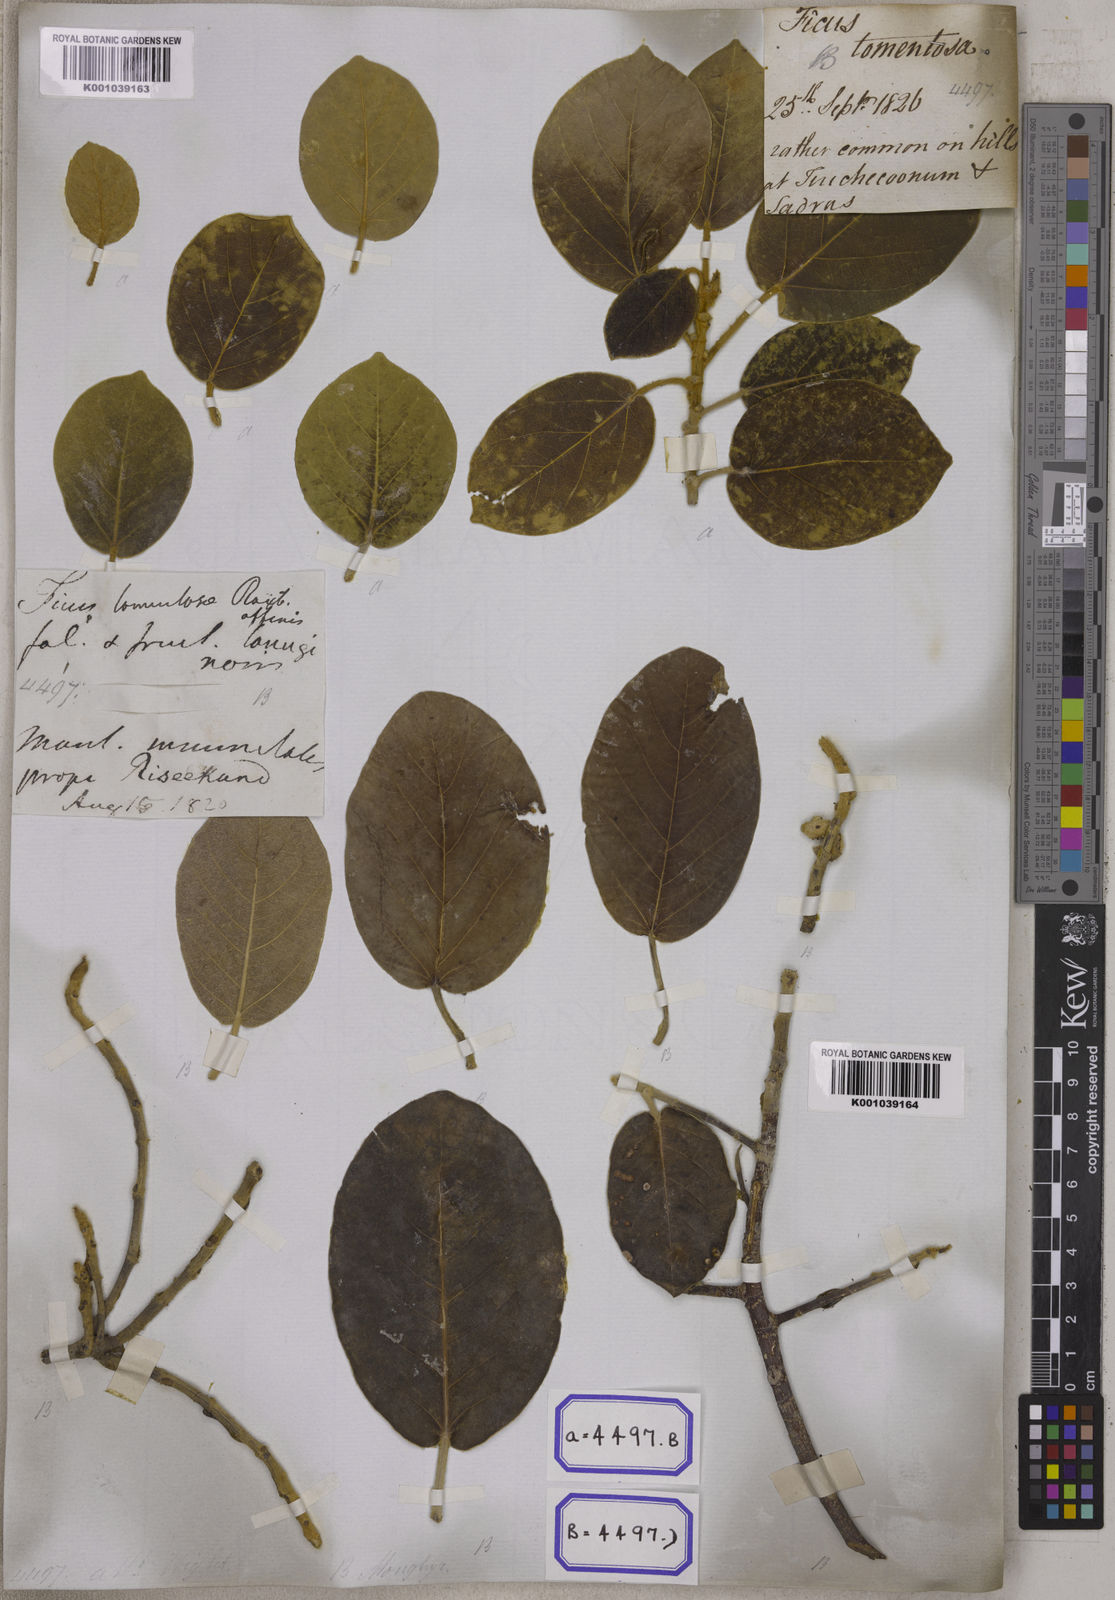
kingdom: Plantae
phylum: Tracheophyta
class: Magnoliopsida
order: Rosales
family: Moraceae
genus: Ficus
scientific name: Ficus mollis
